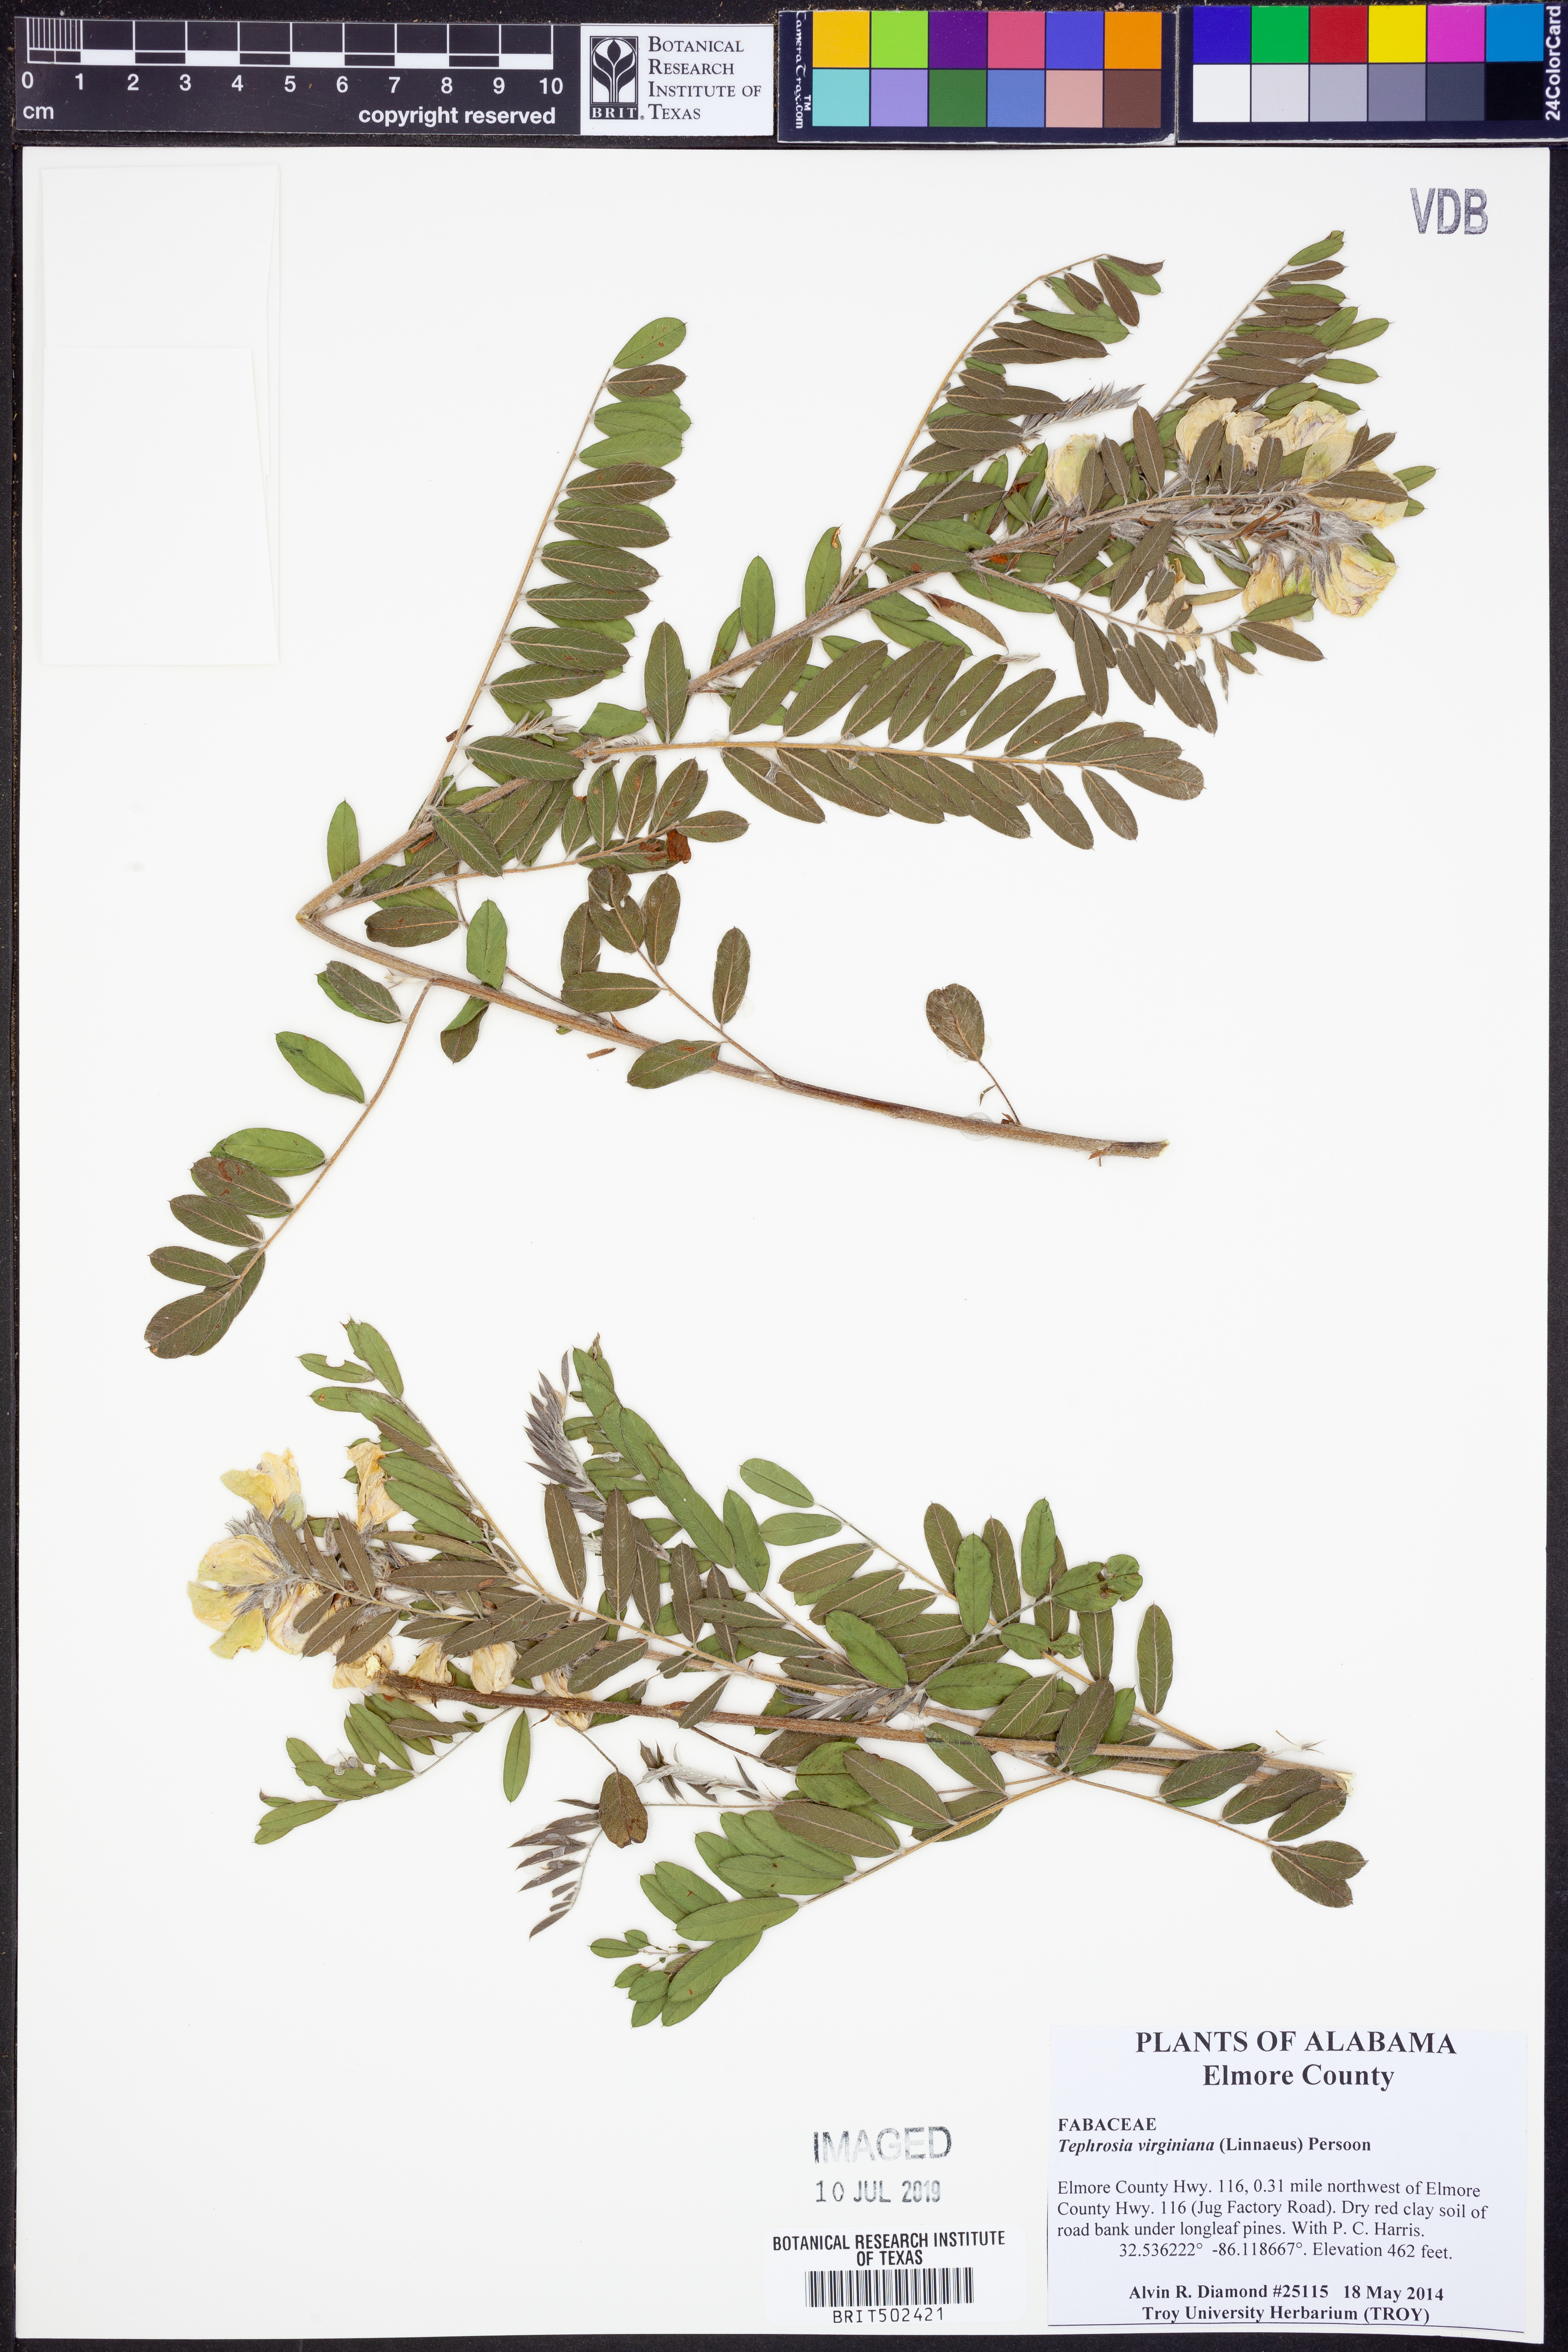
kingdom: Plantae
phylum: Tracheophyta
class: Magnoliopsida
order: Fabales
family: Fabaceae
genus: Tephrosia
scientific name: Tephrosia virginiana
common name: Rabbit-pea
